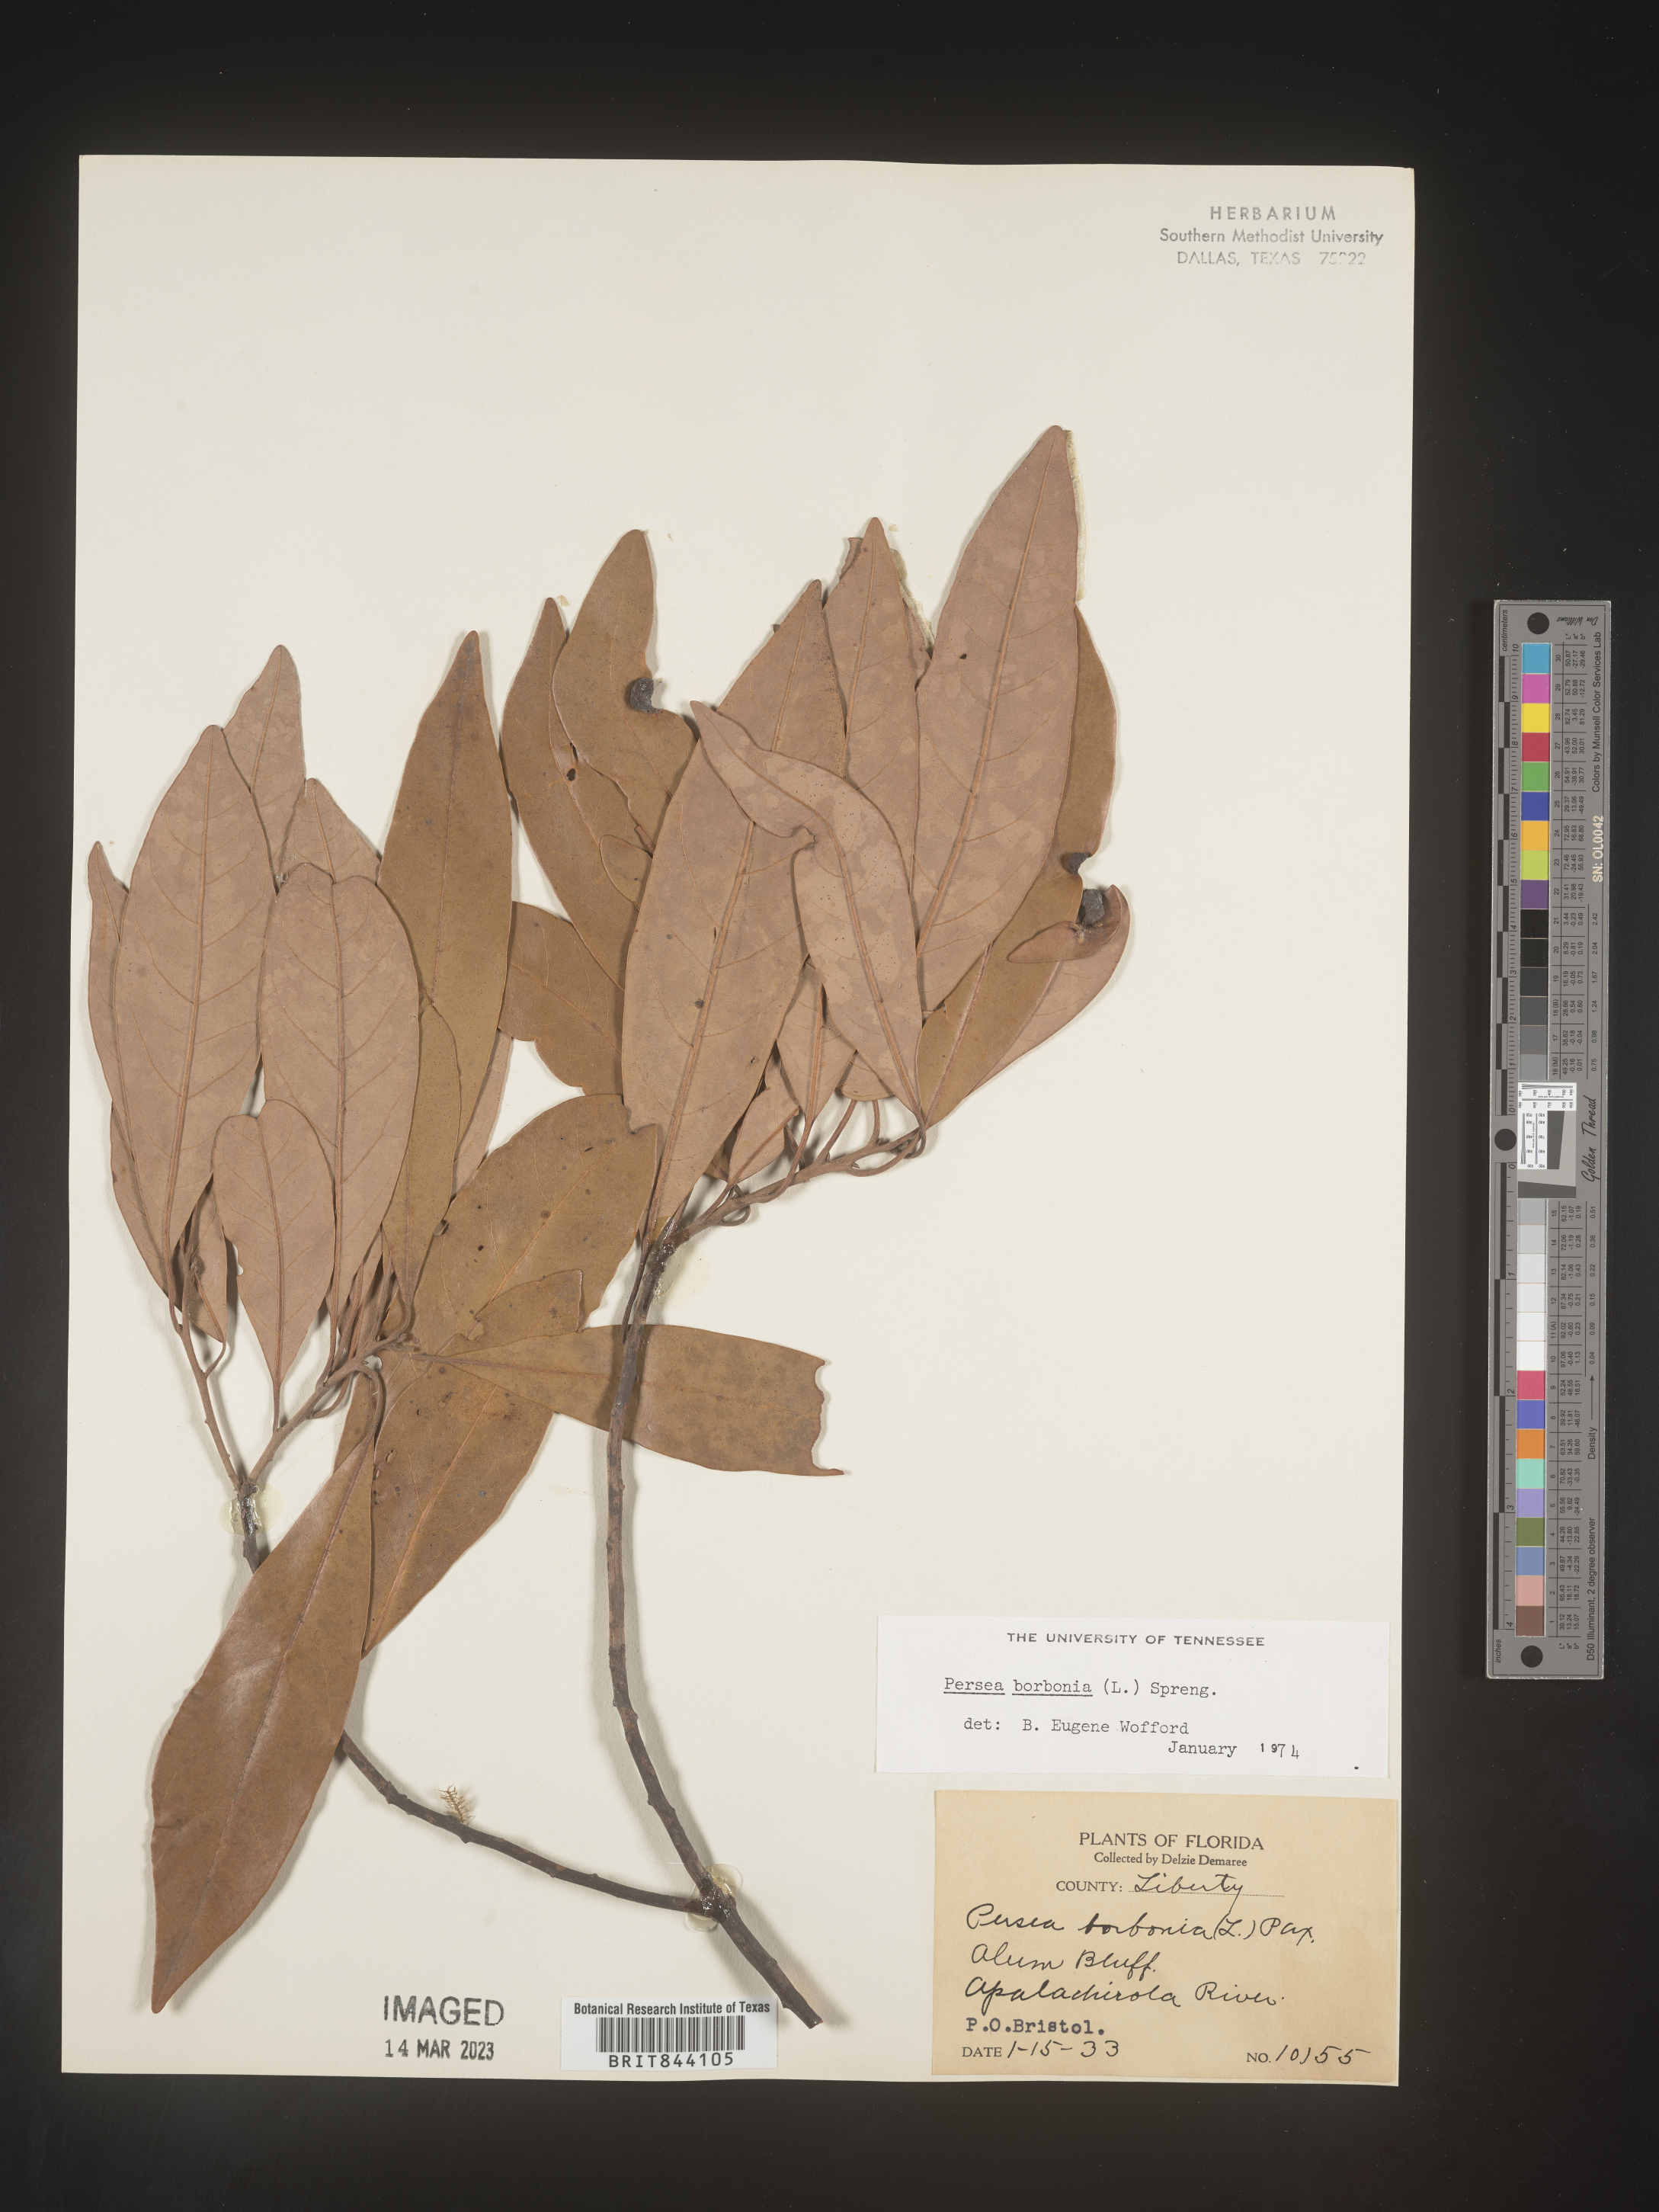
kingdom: Plantae
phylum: Tracheophyta
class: Magnoliopsida
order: Laurales
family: Lauraceae
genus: Persea
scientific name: Persea borbonia
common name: Redbay
